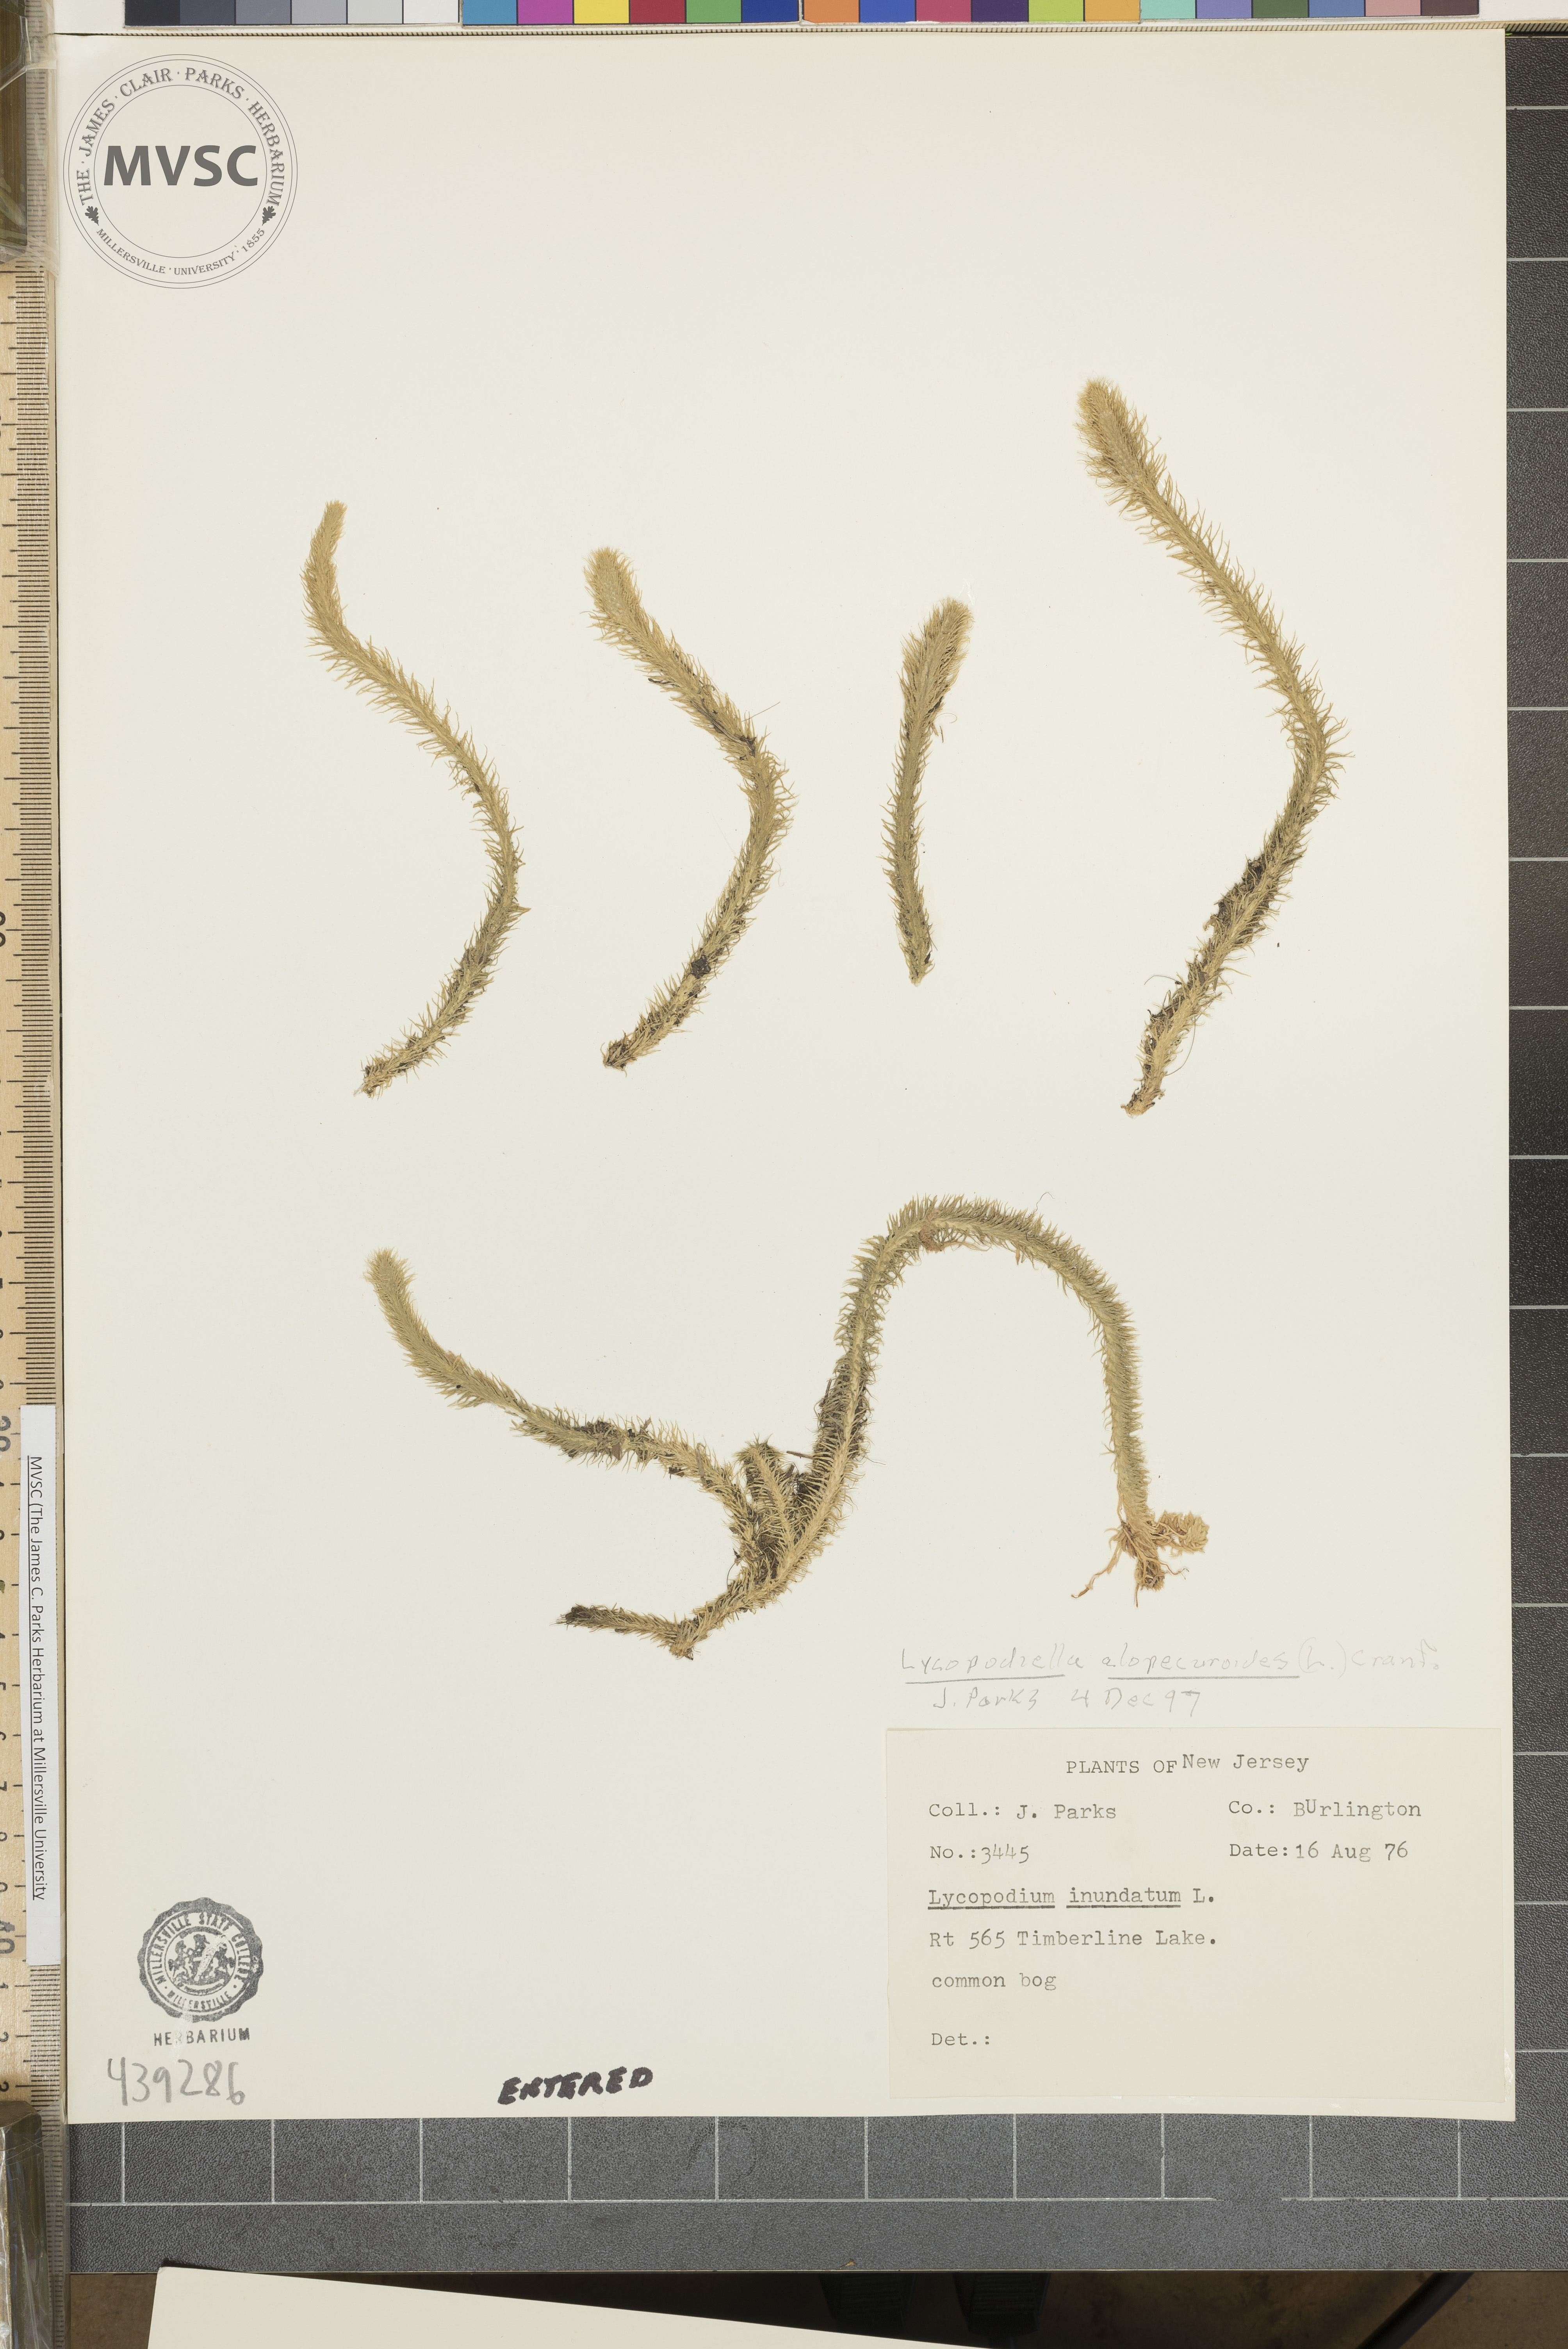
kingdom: Plantae
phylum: Tracheophyta
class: Lycopodiopsida
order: Lycopodiales
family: Lycopodiaceae
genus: Lycopodiella
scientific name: Lycopodiella alopecuroides
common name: Bog clubmoss
